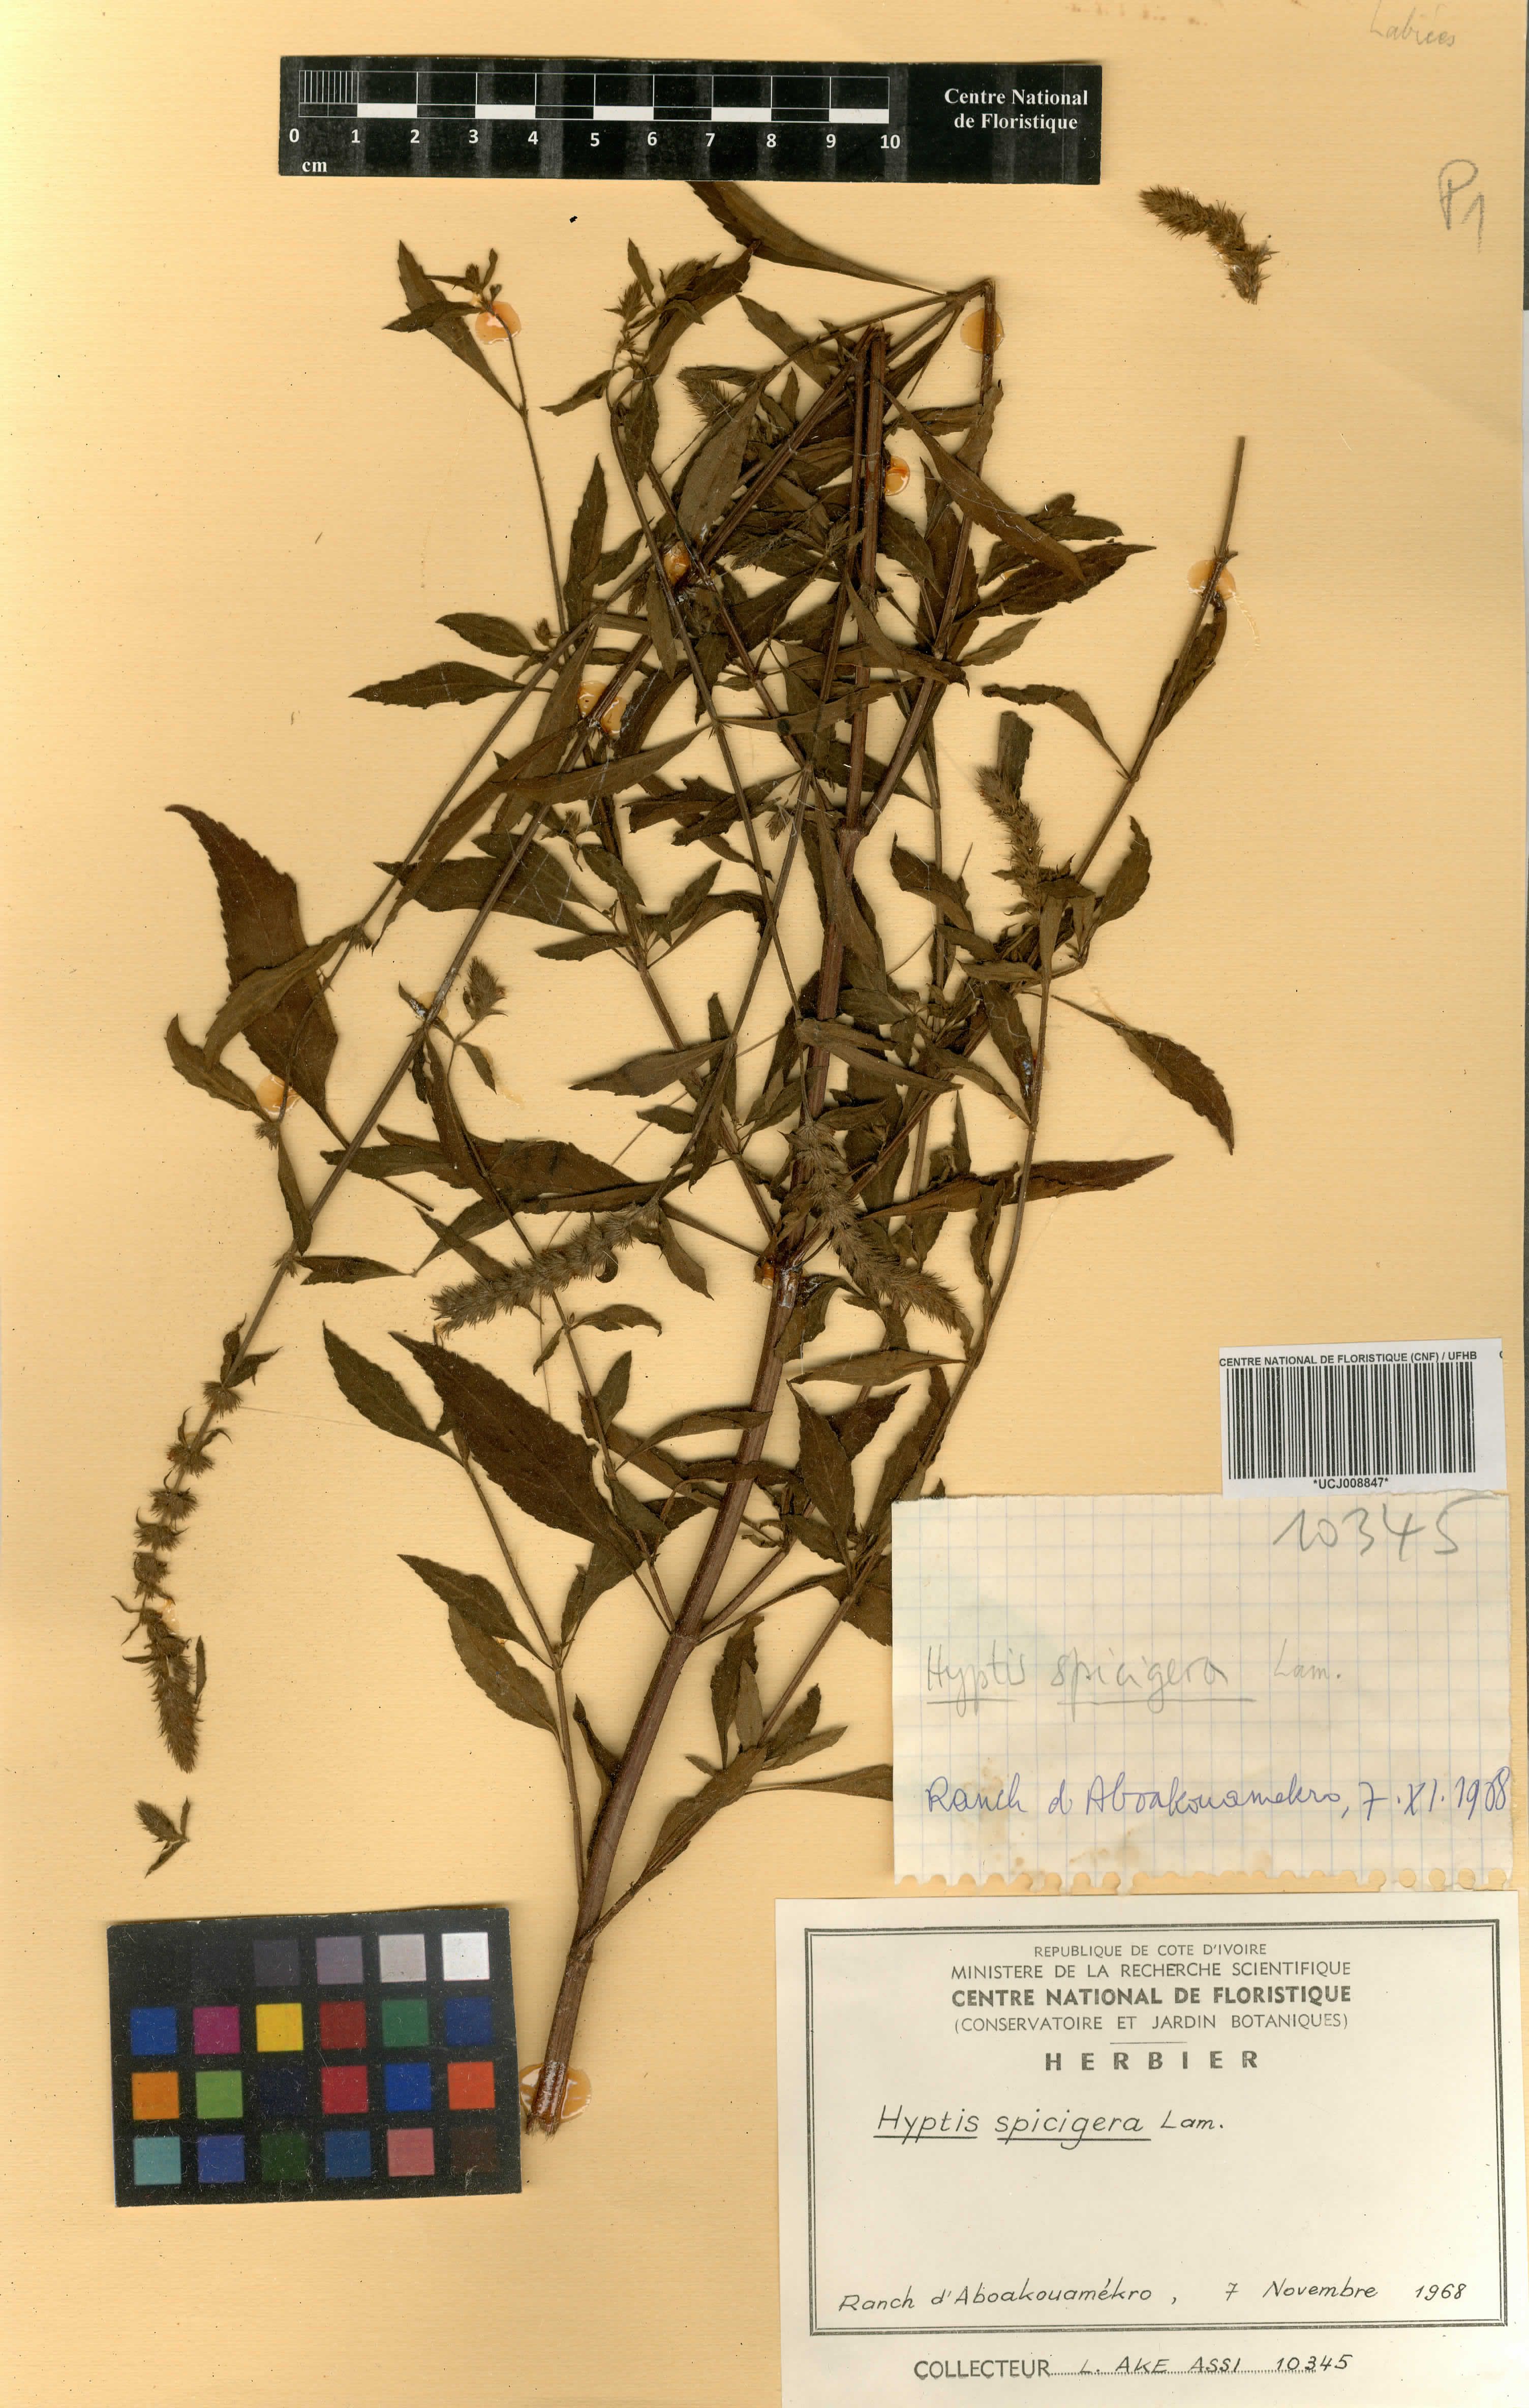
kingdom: Plantae
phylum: Tracheophyta
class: Magnoliopsida
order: Lamiales
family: Lamiaceae
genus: Cantinoa
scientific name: Cantinoa americana
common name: Black-sesame
